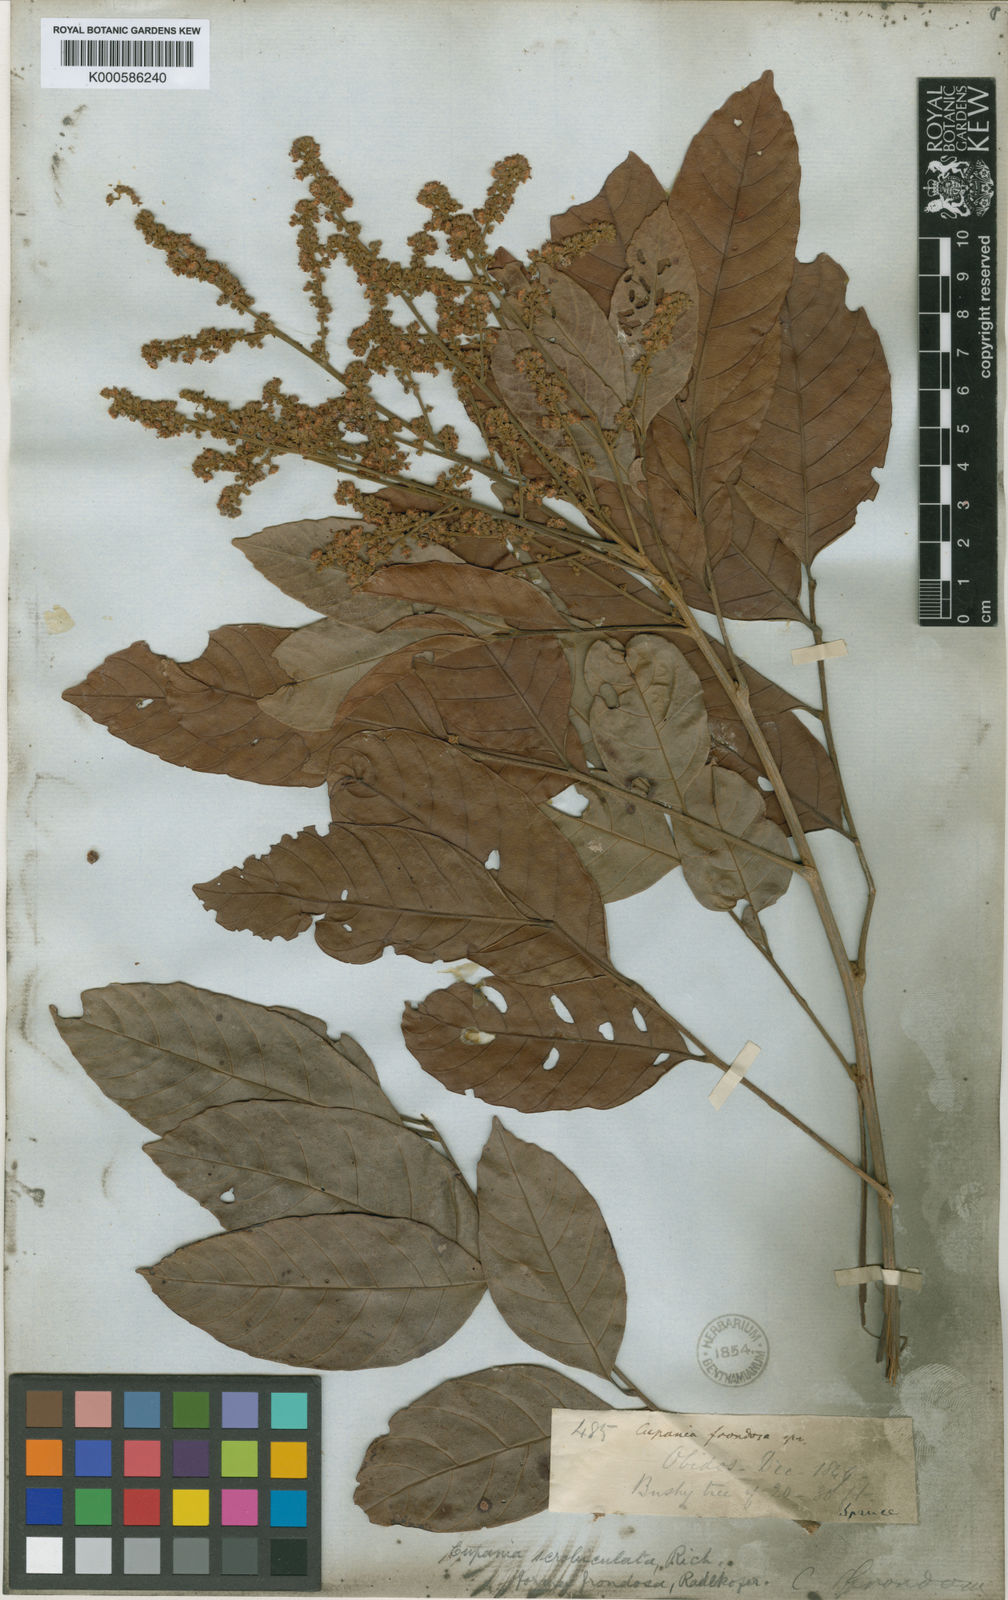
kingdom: Plantae
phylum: Tracheophyta
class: Magnoliopsida
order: Sapindales
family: Sapindaceae
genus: Cupania
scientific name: Cupania scrobiculata
